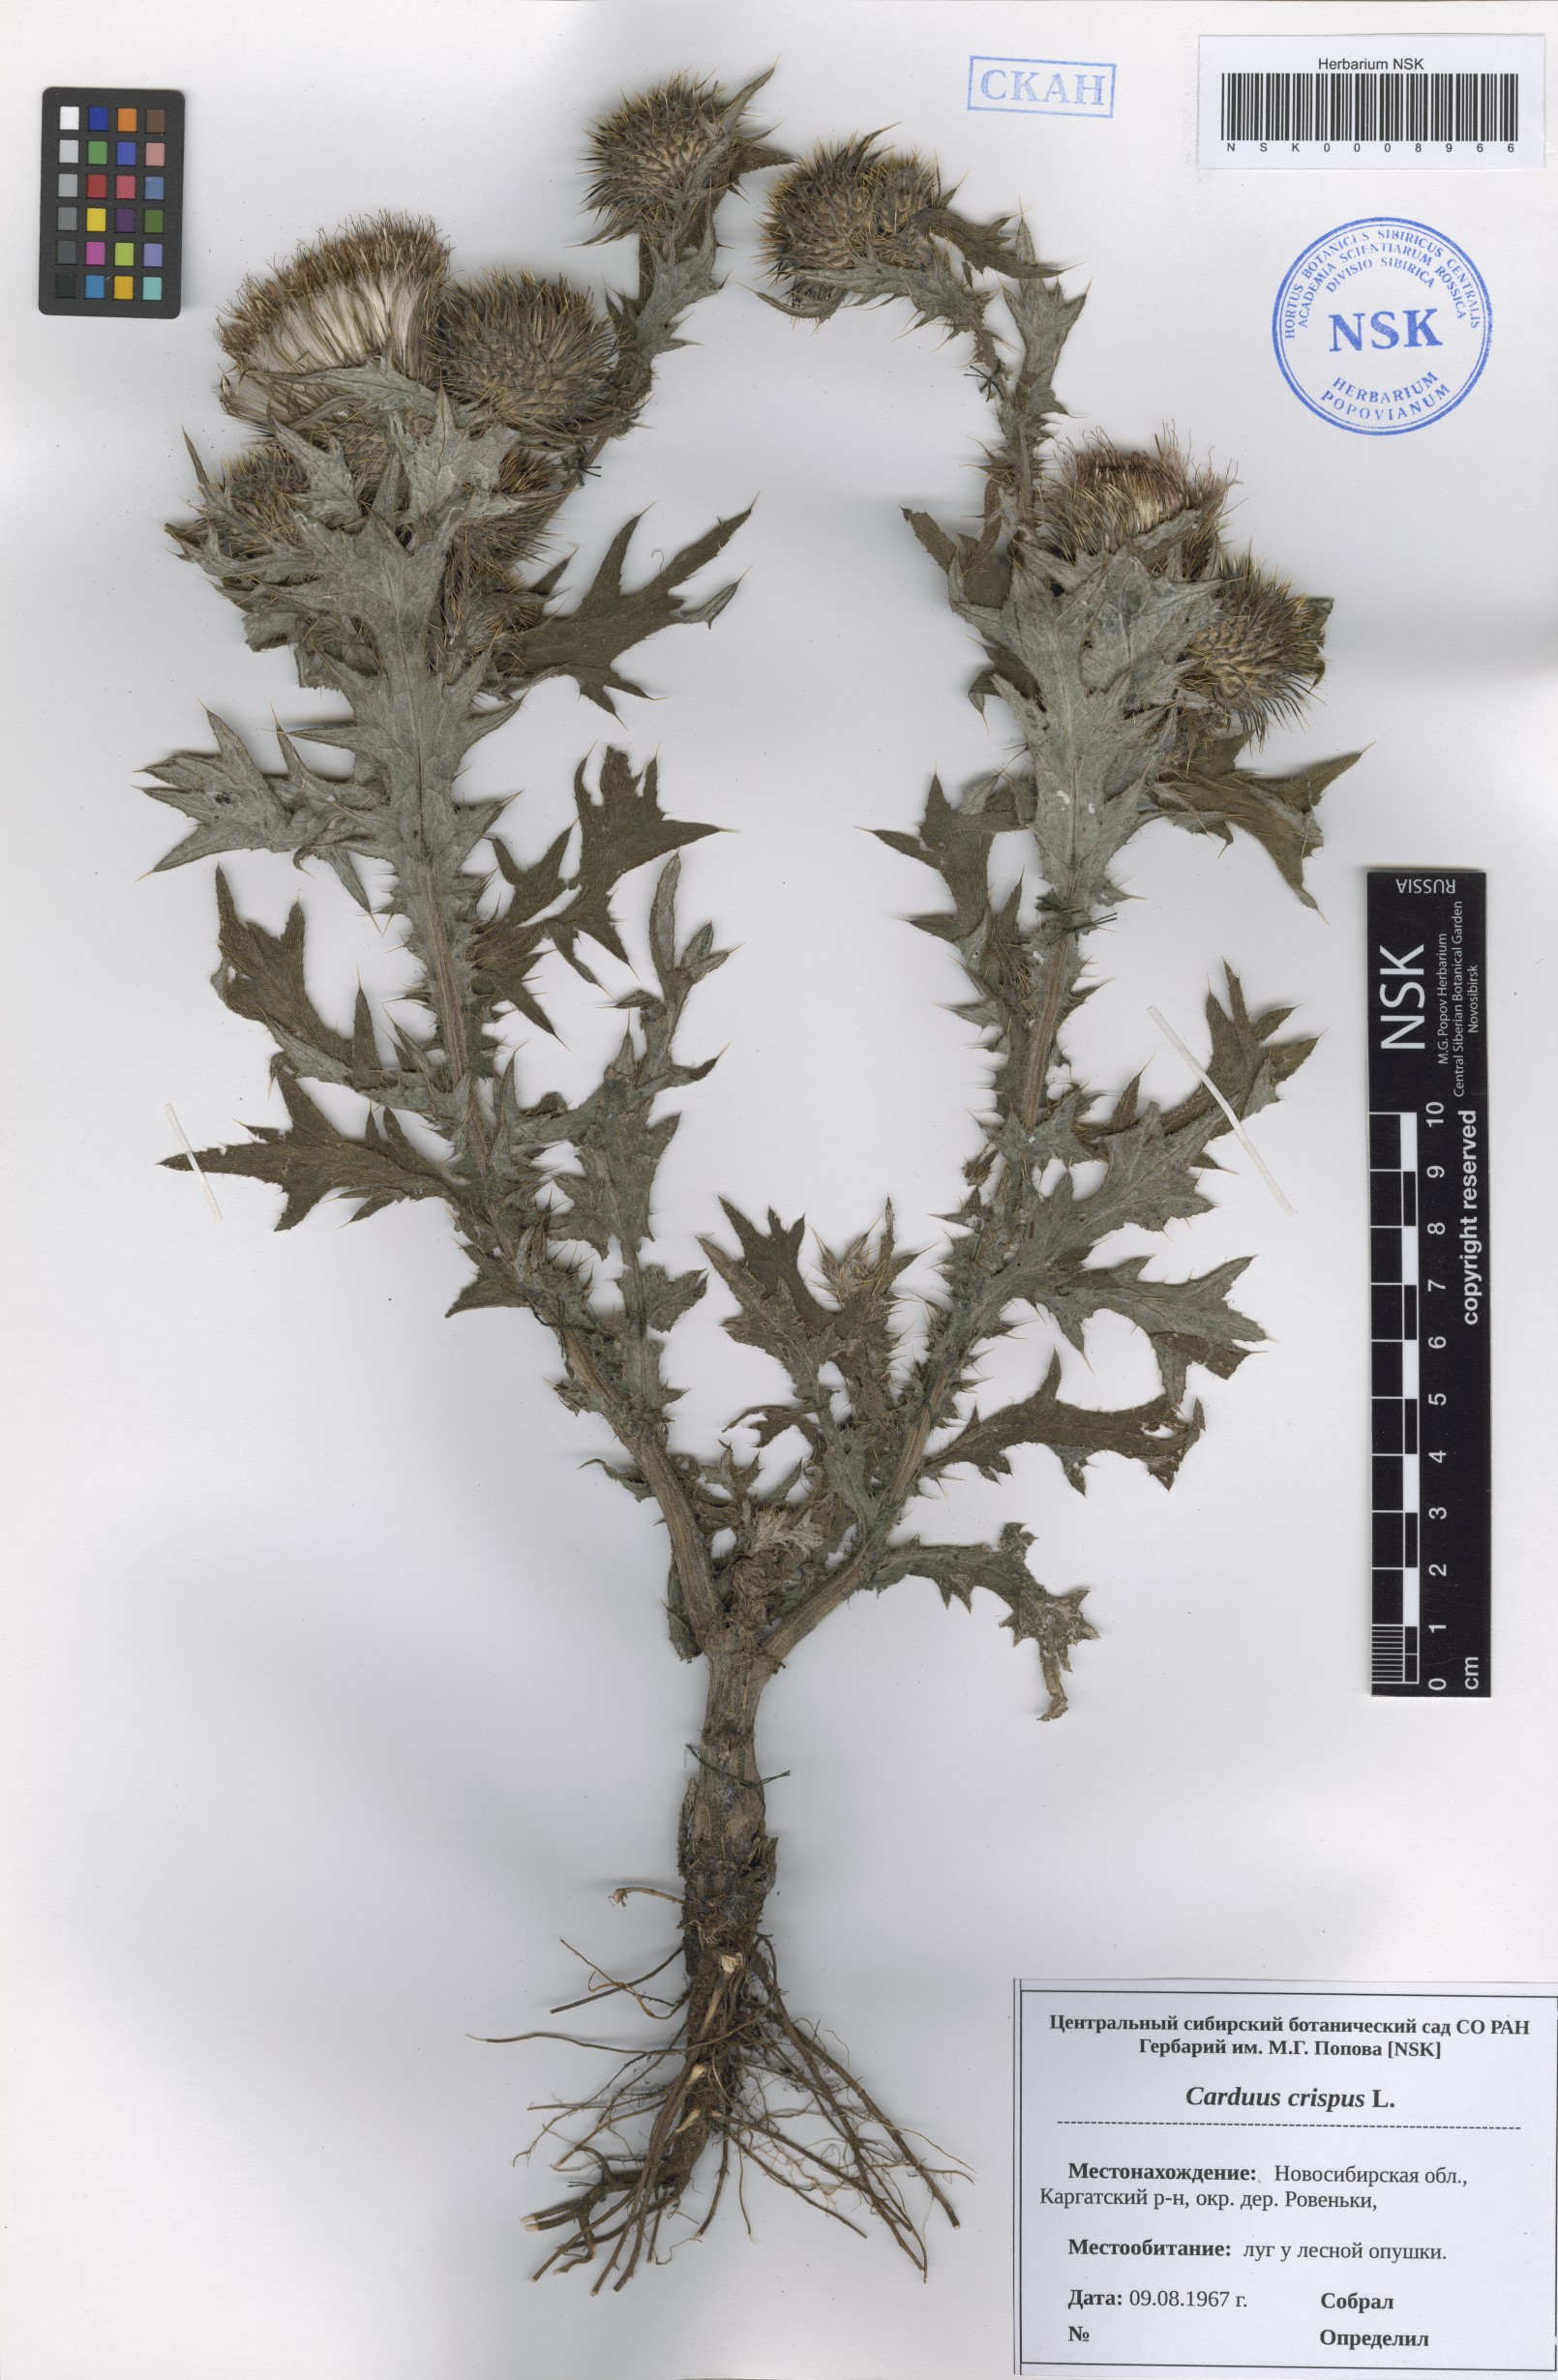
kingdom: Plantae
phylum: Tracheophyta
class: Magnoliopsida
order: Asterales
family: Asteraceae
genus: Carduus
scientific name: Carduus crispus
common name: Welted thistle
